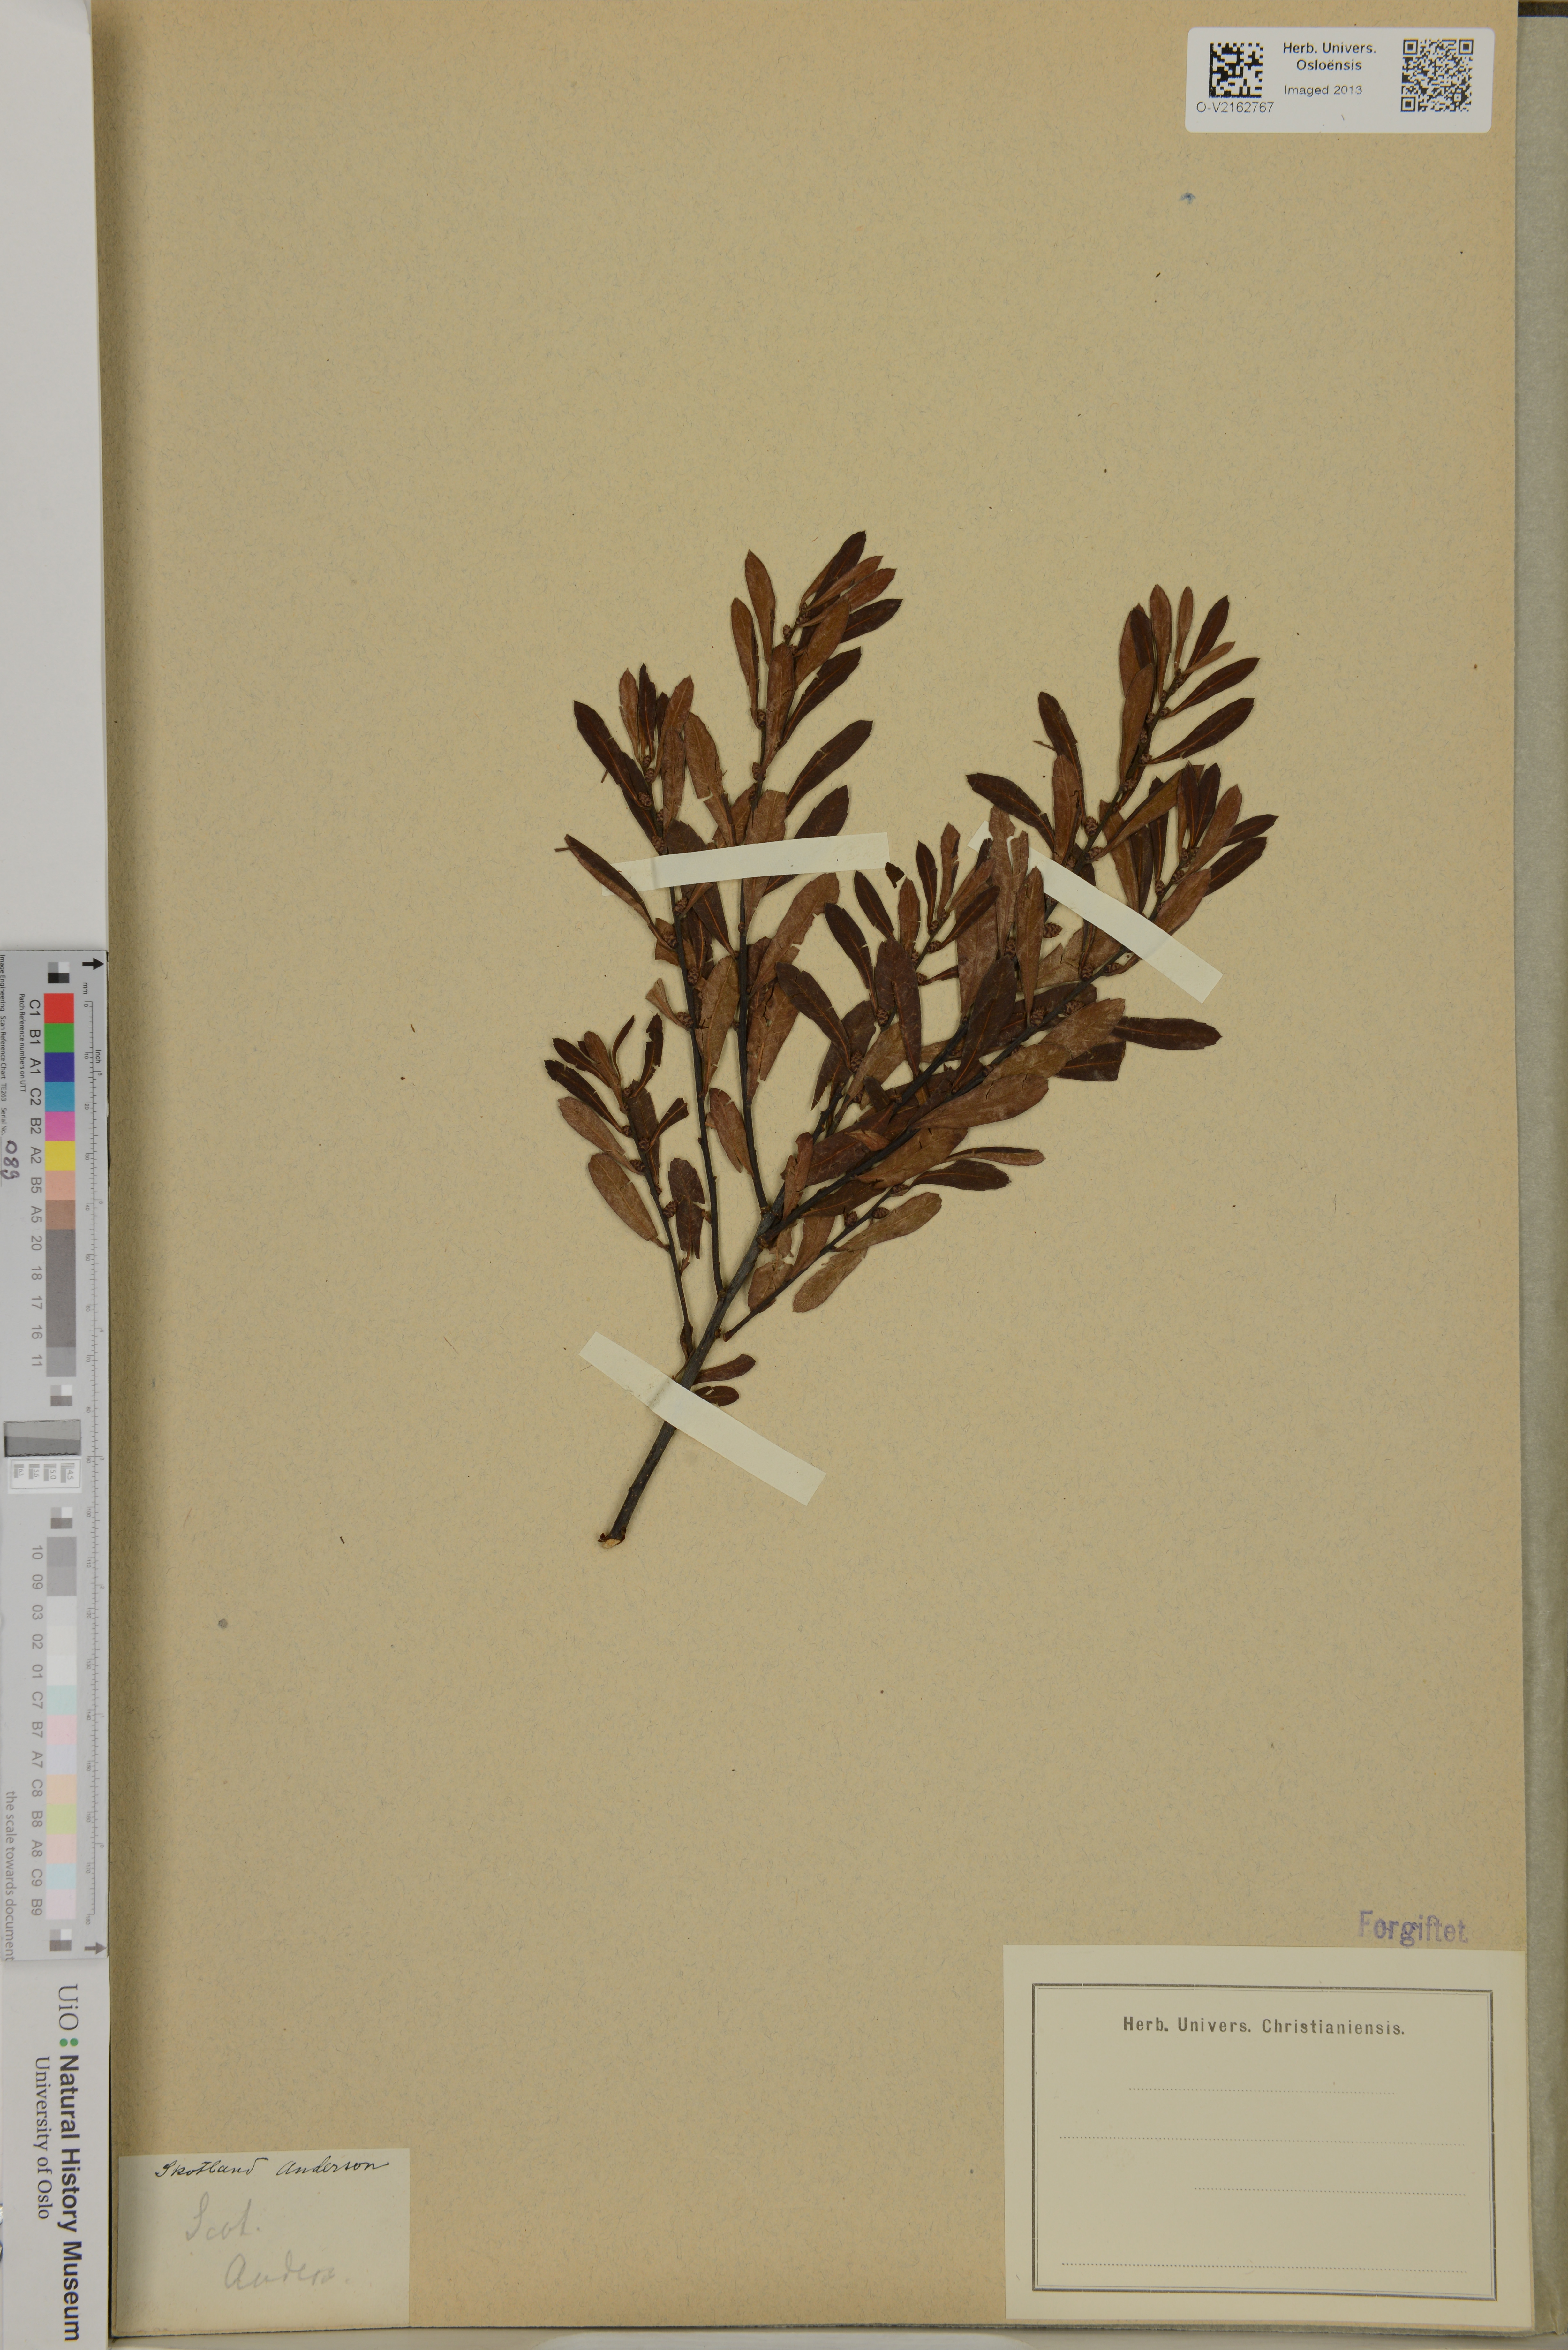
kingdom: Plantae
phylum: Tracheophyta
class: Magnoliopsida
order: Fagales
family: Myricaceae
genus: Myrica
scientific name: Myrica
